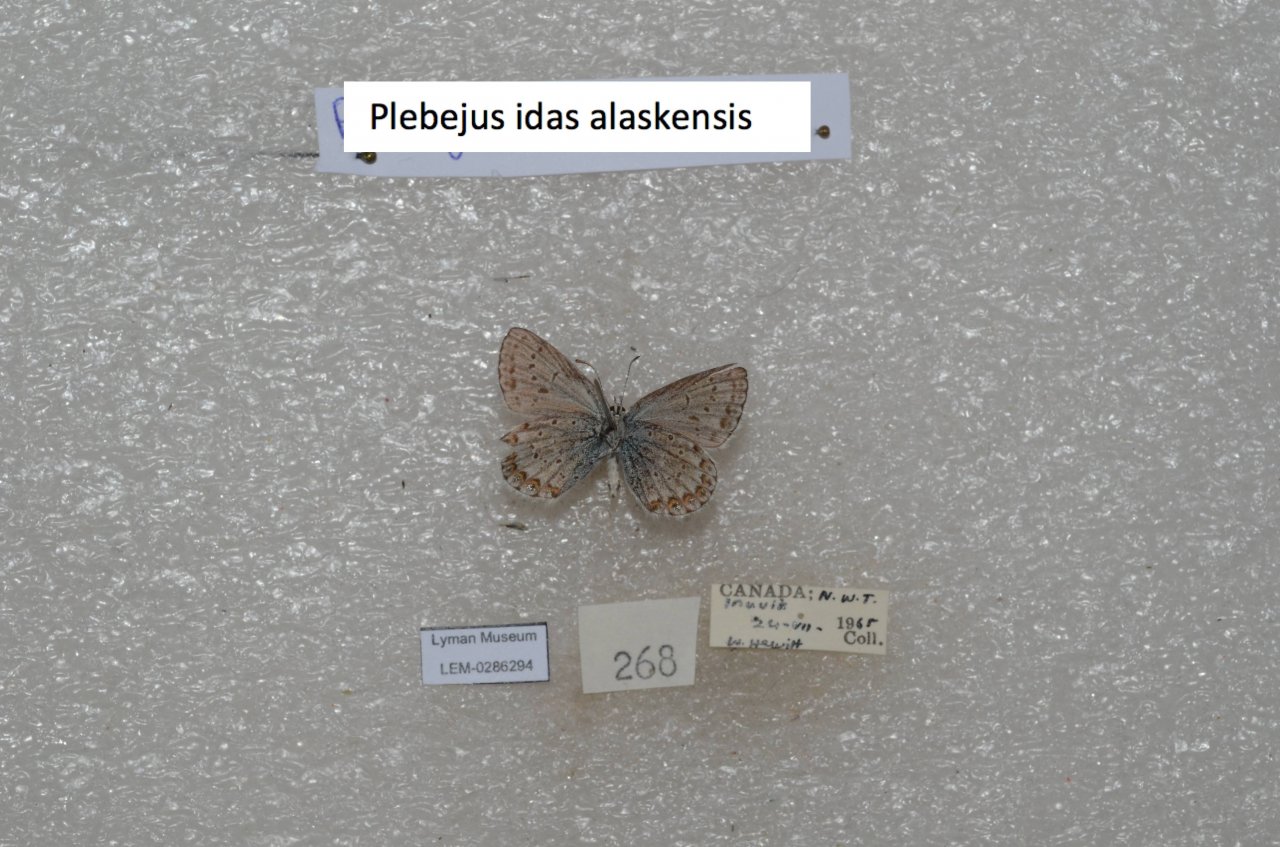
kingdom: Animalia
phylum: Arthropoda
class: Insecta
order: Lepidoptera
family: Lycaenidae
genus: Lycaeides
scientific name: Lycaeides idas
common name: Northern Blue
